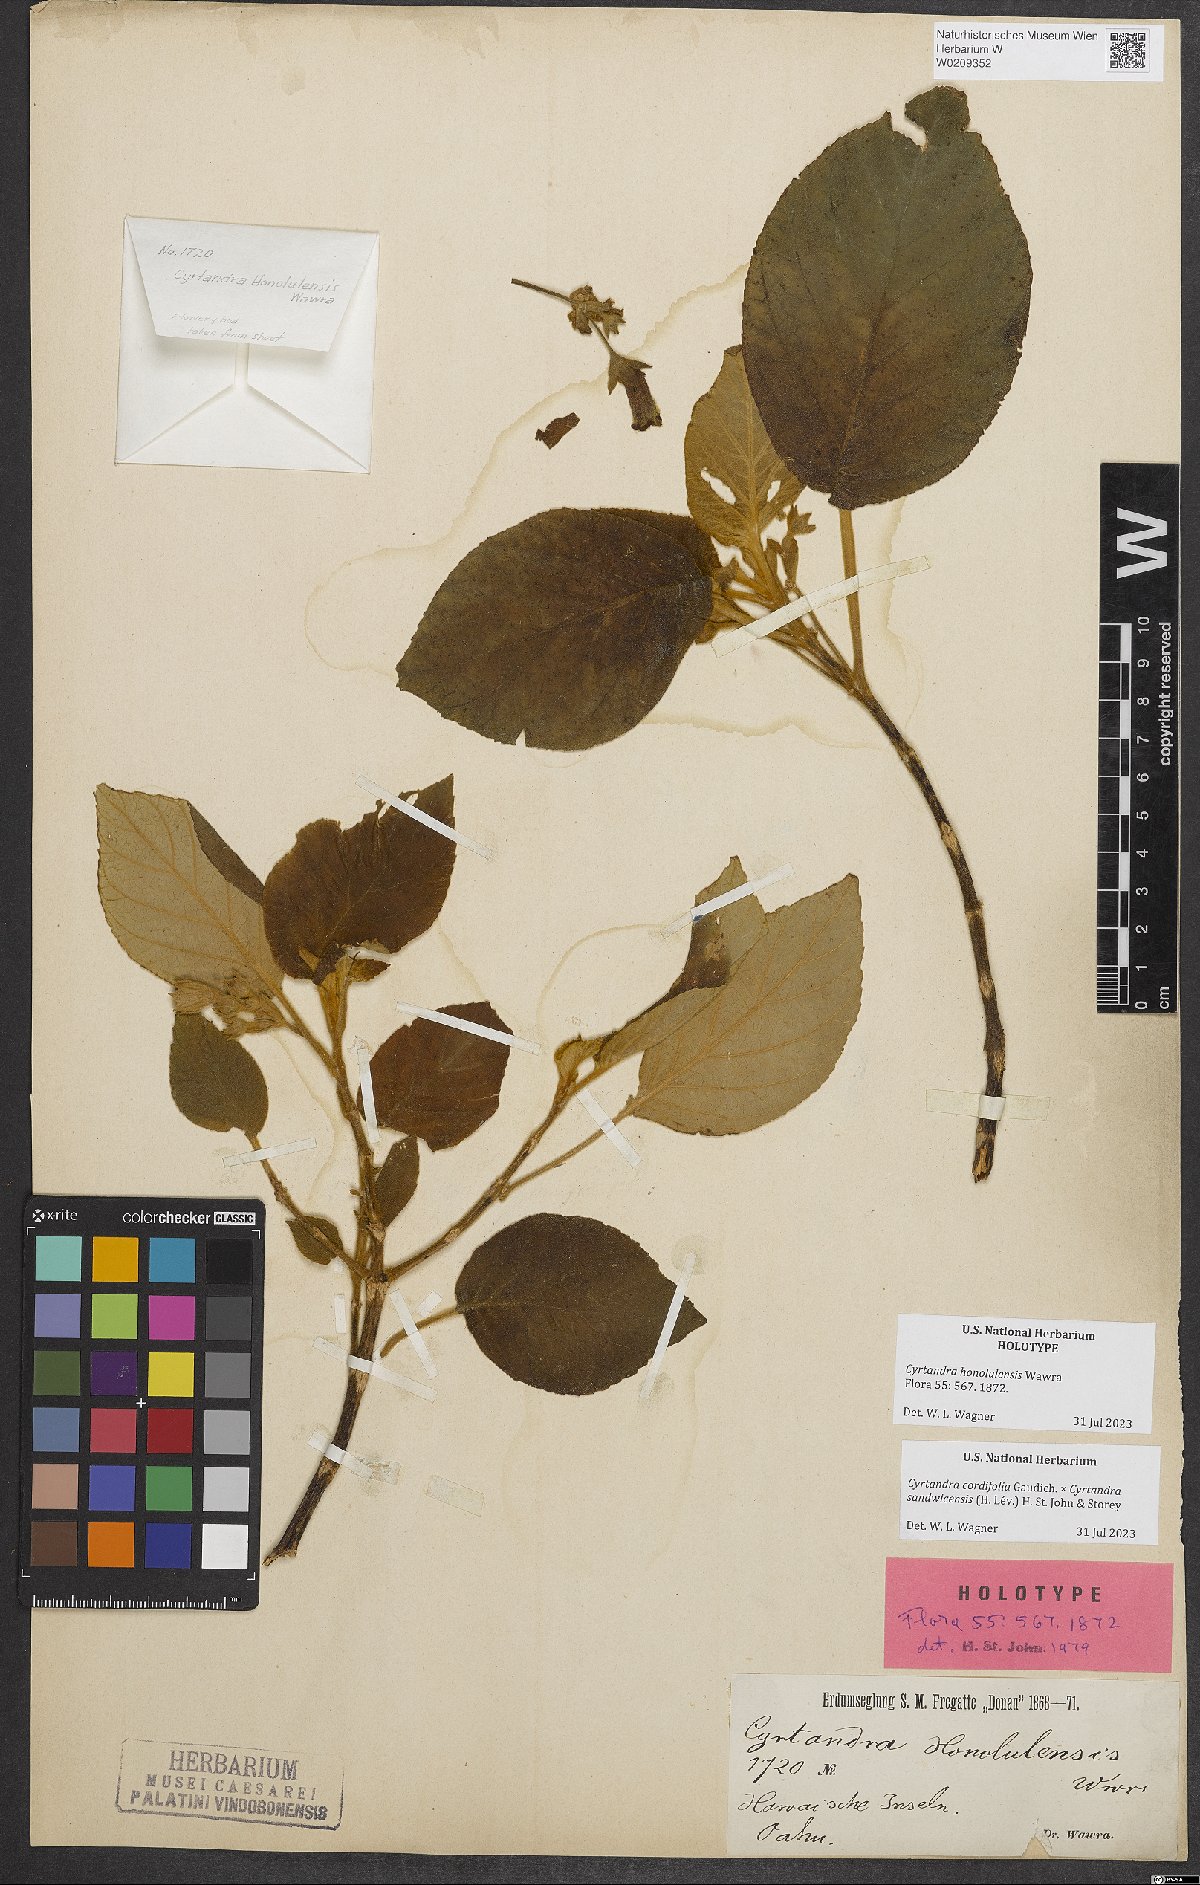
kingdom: Plantae
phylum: Tracheophyta
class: Magnoliopsida
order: Lamiales
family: Gesneriaceae
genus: Cyrtandra
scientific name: Cyrtandra honolulensis
